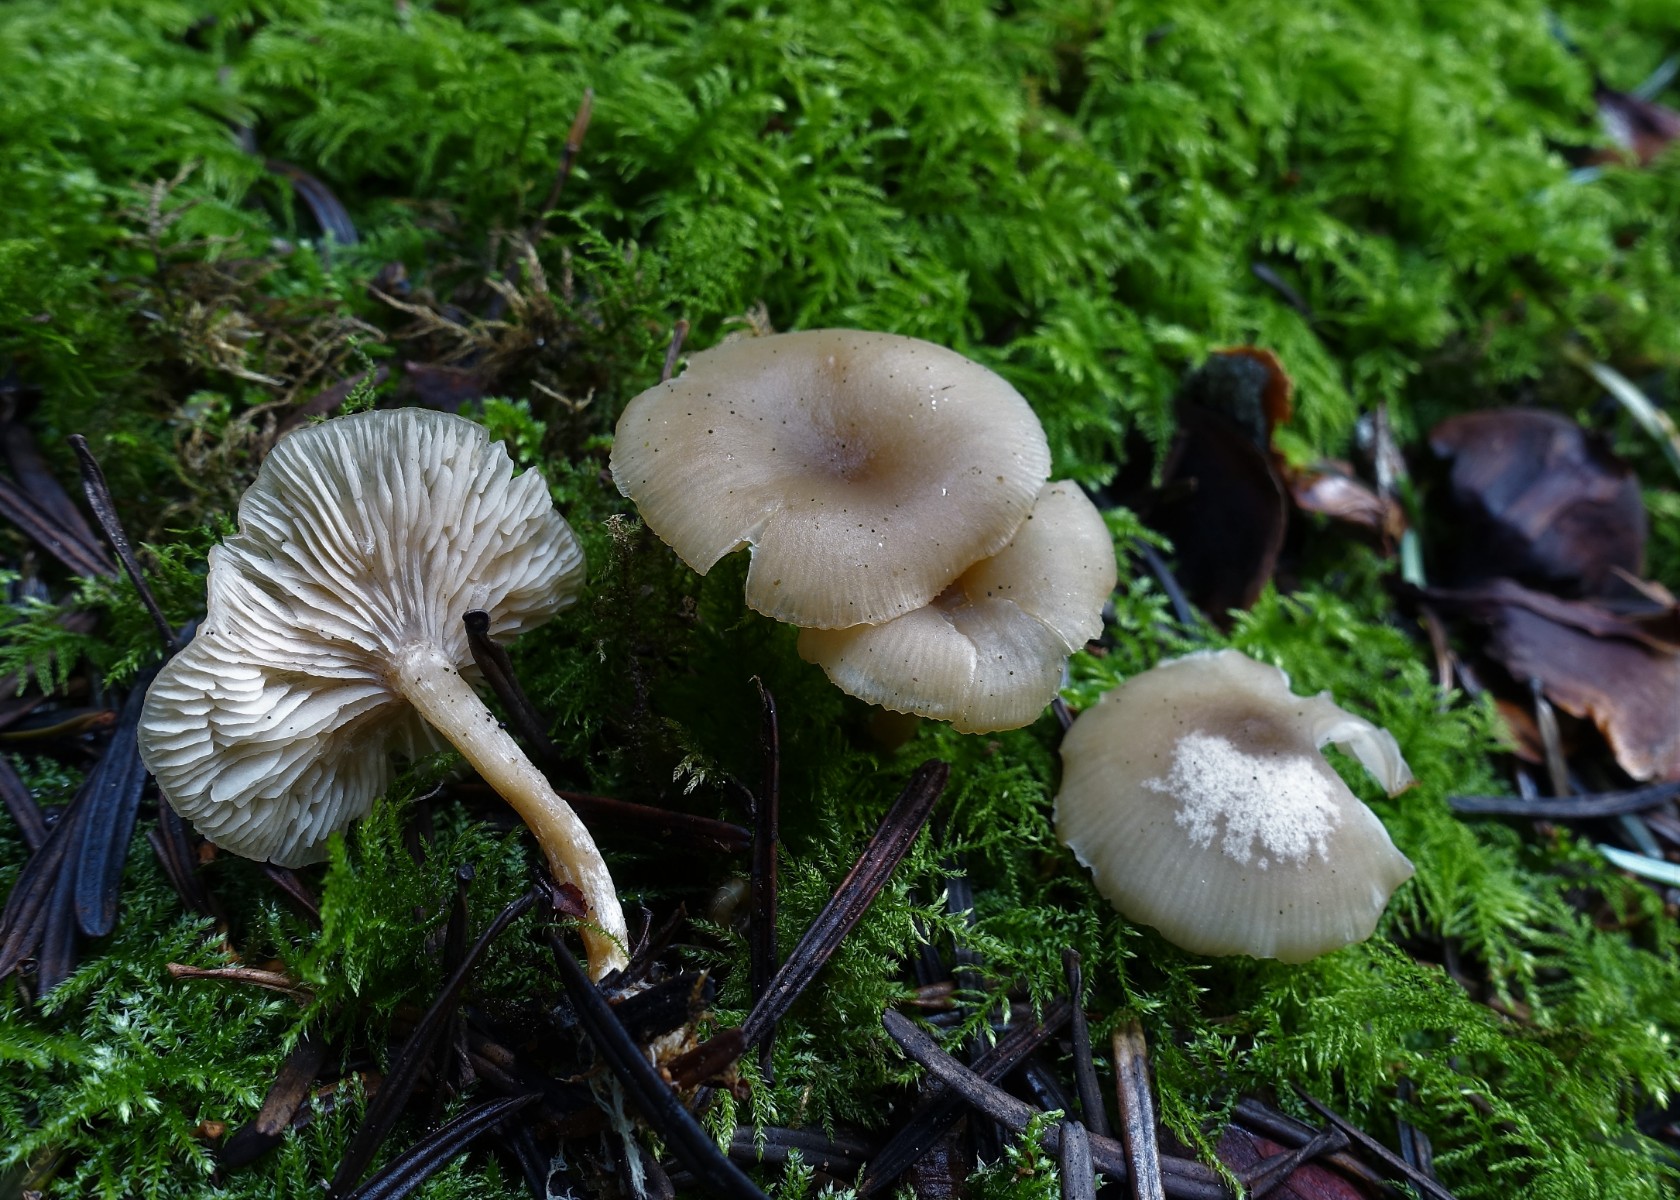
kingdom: Fungi
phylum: Basidiomycota
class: Agaricomycetes
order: Agaricales
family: Tricholomataceae
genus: Clitocybe
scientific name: Clitocybe fragrans
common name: vellugtende tragthat
